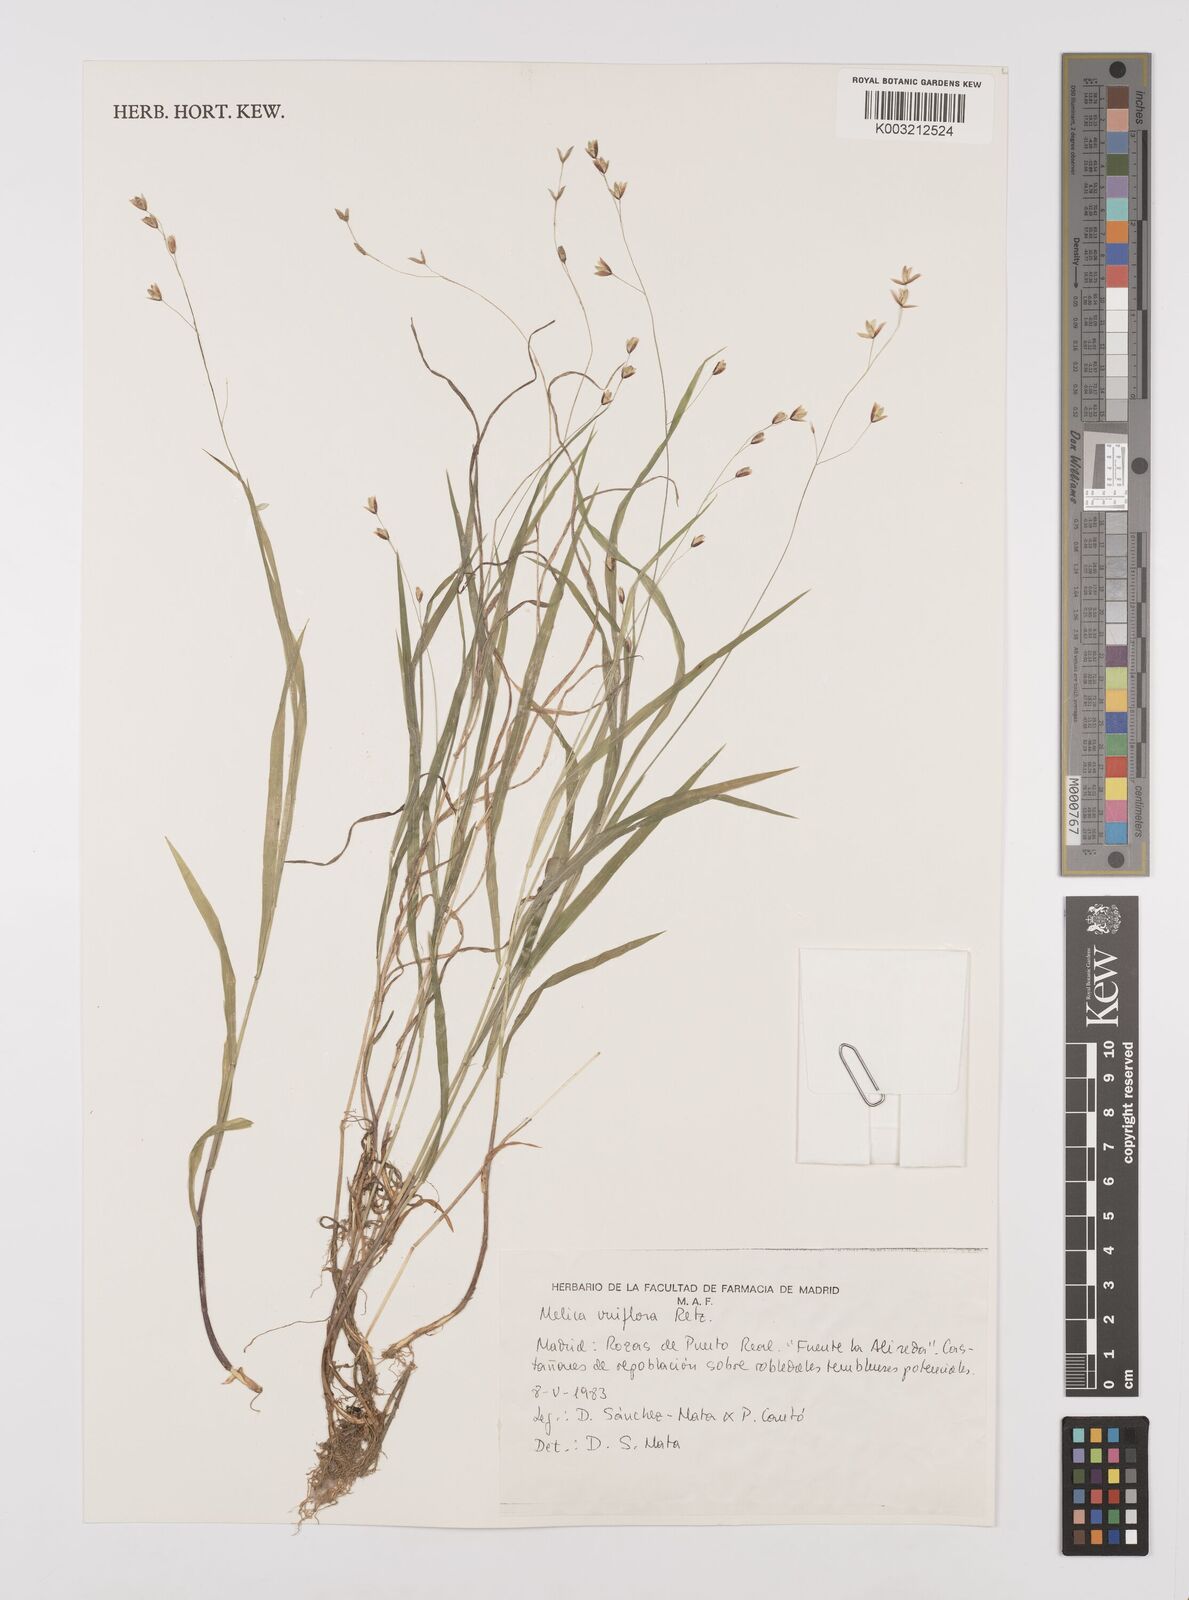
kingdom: Plantae
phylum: Tracheophyta
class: Liliopsida
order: Poales
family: Poaceae
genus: Melica
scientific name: Melica uniflora
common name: Wood melick
